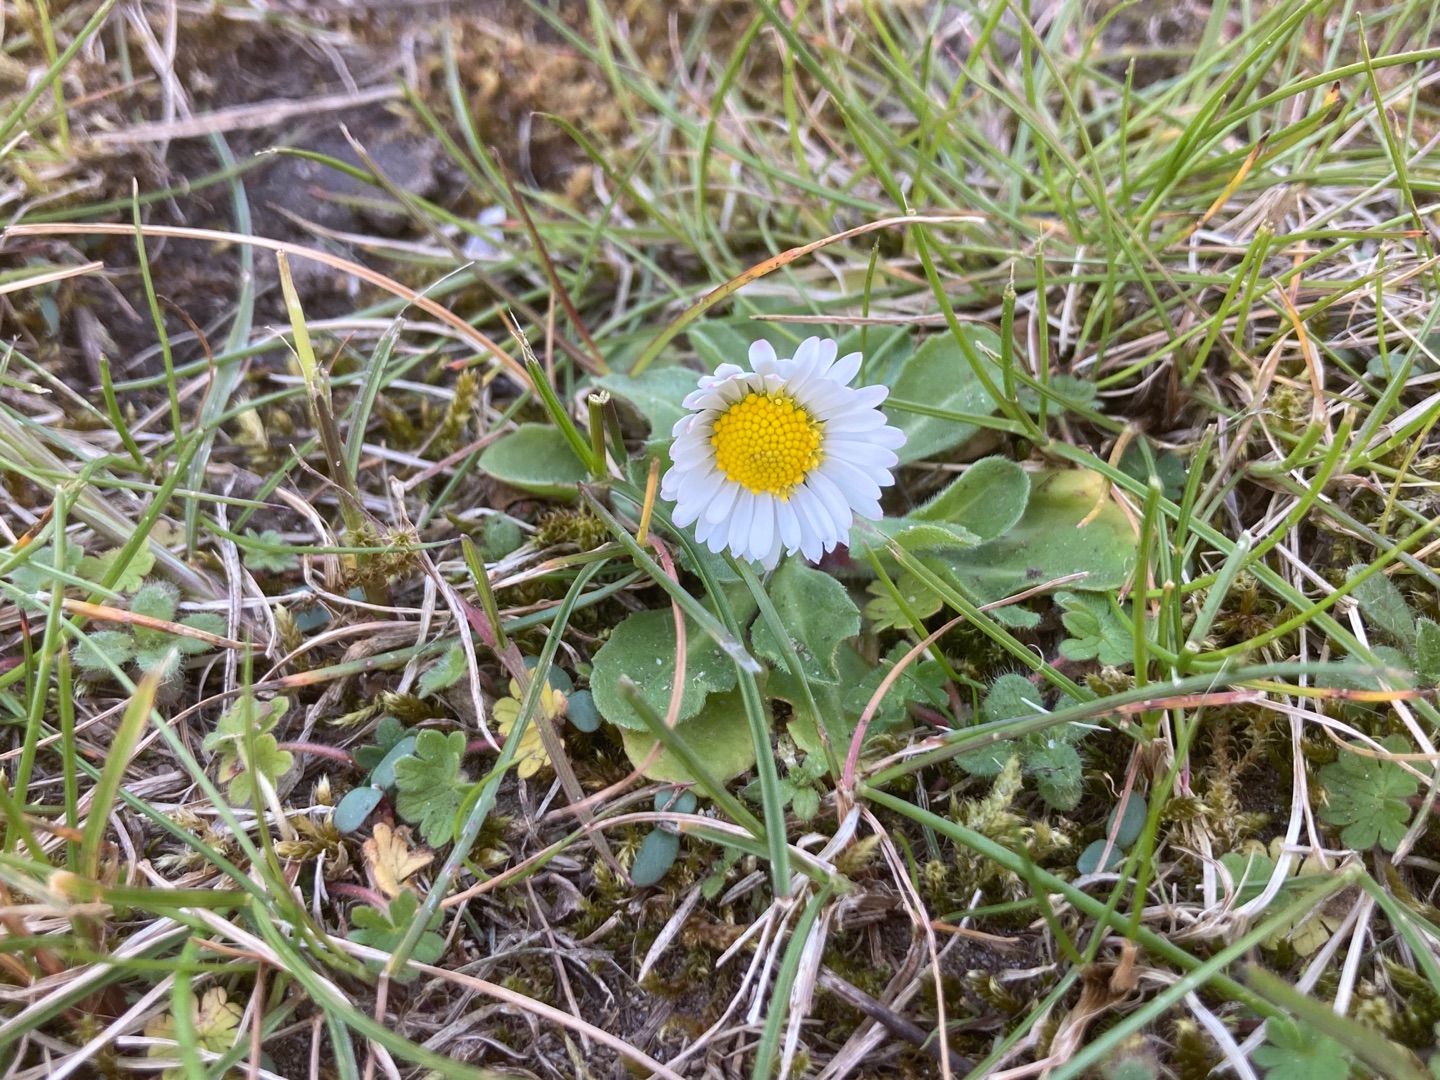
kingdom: Plantae
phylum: Tracheophyta
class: Magnoliopsida
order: Asterales
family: Asteraceae
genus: Bellis
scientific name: Bellis perennis
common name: Tusindfryd
